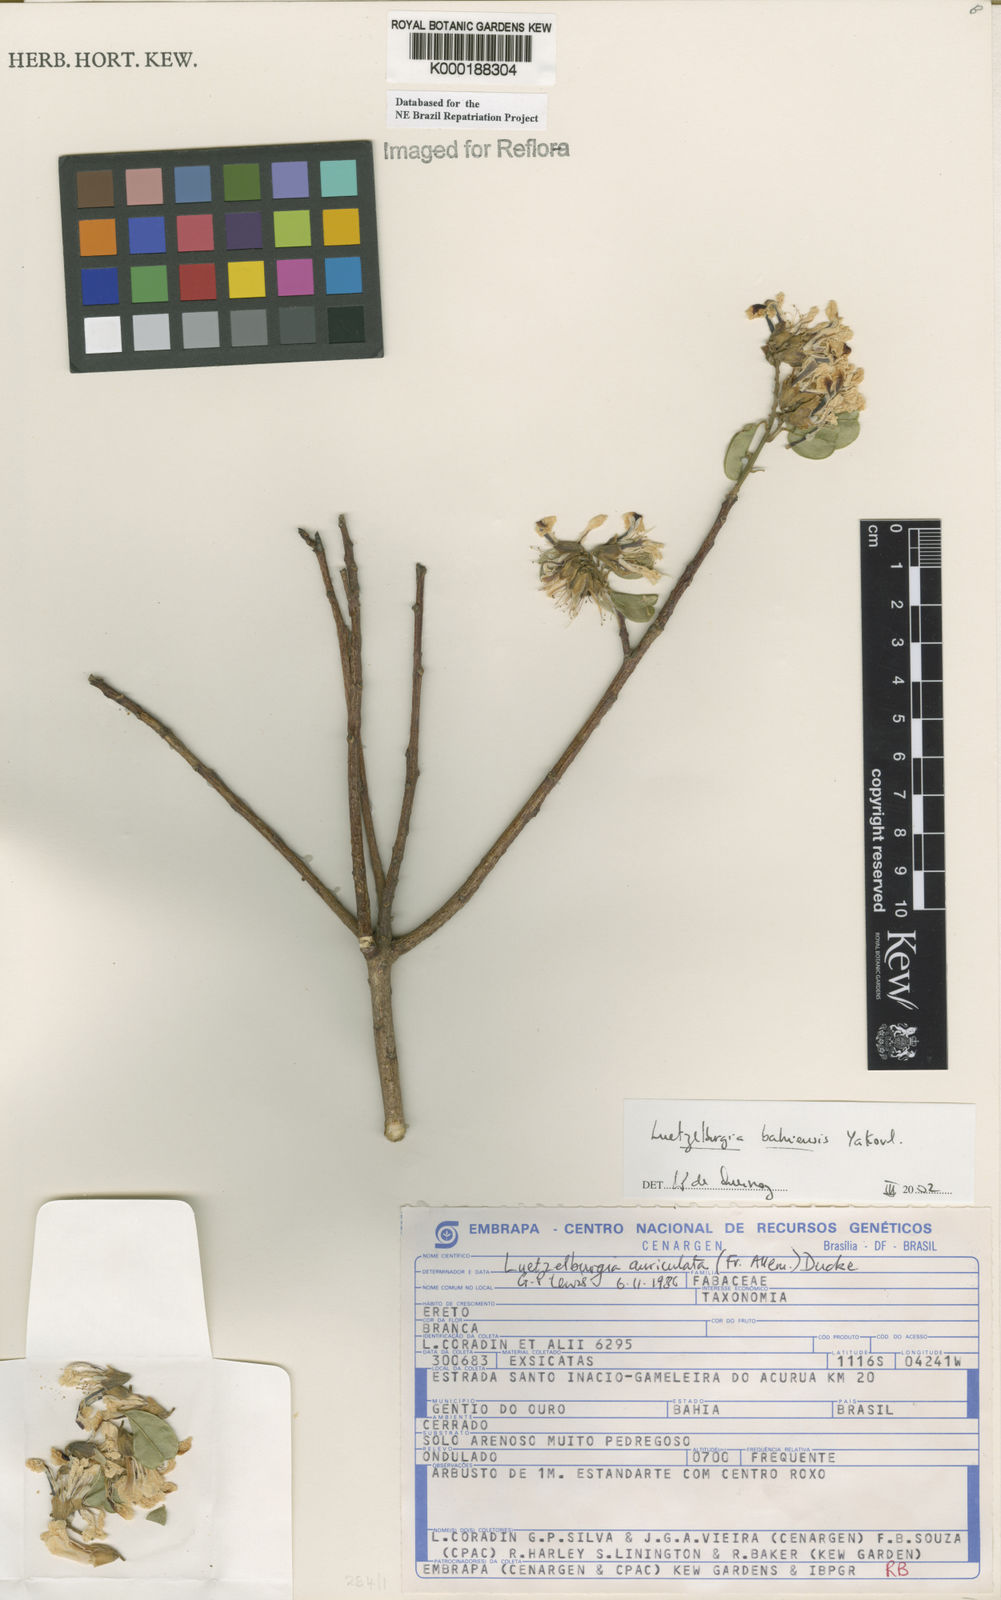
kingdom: Plantae
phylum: Tracheophyta
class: Magnoliopsida
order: Fabales
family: Fabaceae
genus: Luetzelburgia
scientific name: Luetzelburgia bahiensis
